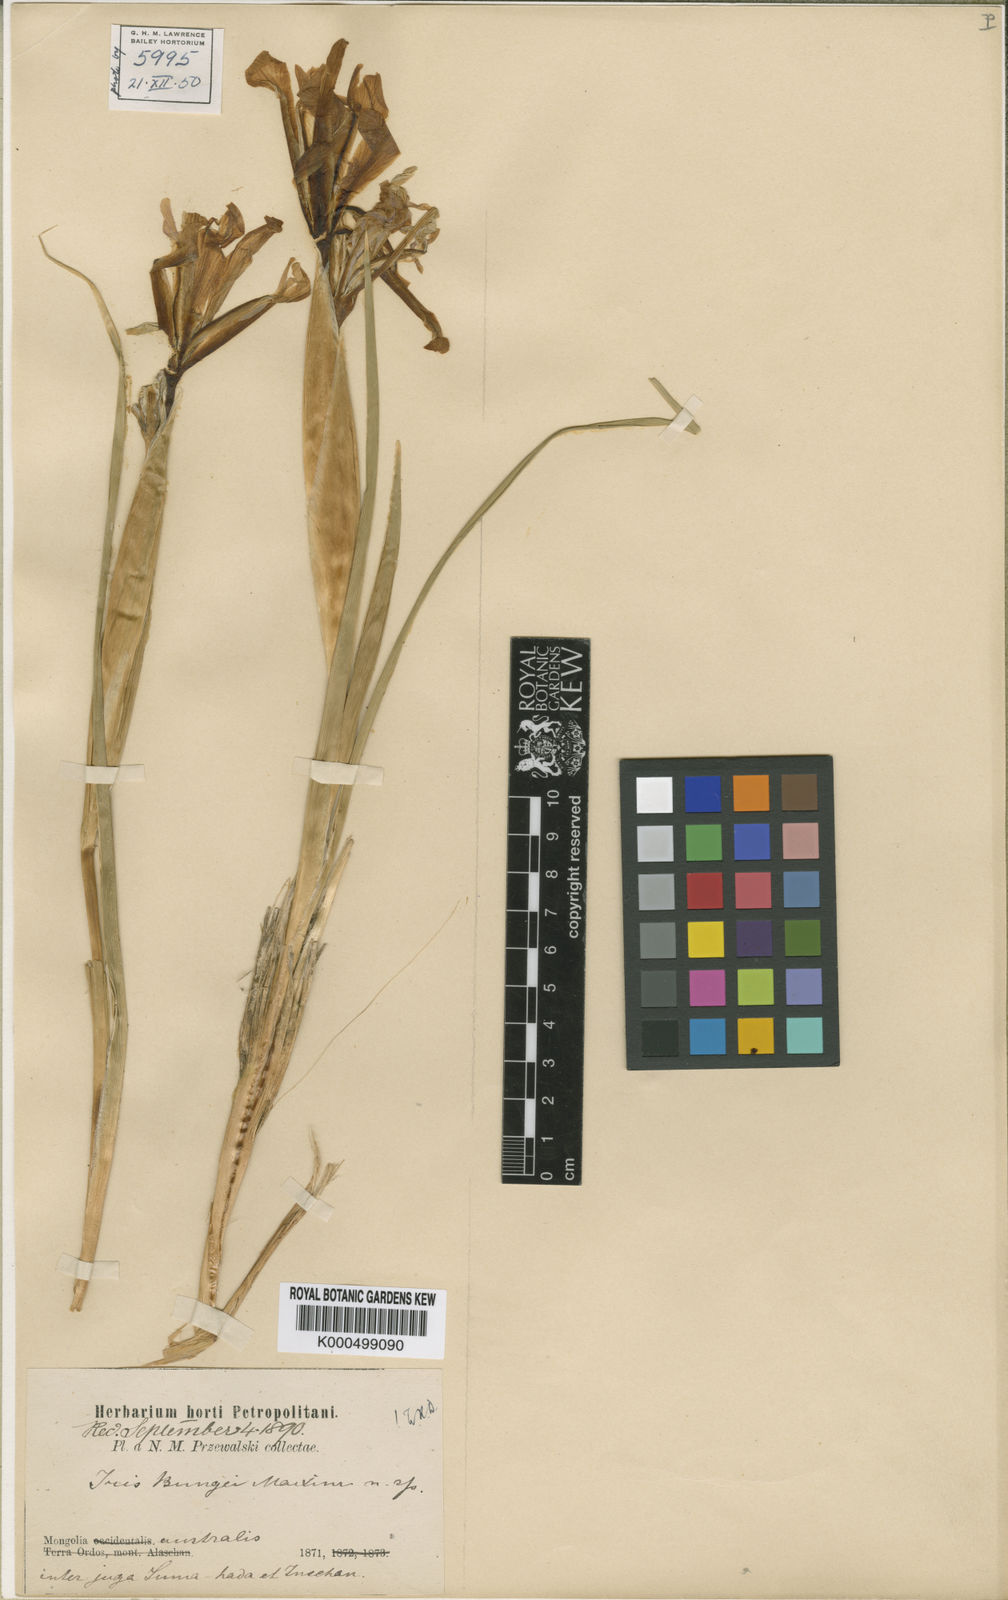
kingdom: Plantae
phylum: Tracheophyta
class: Liliopsida
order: Asparagales
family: Iridaceae
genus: Iris
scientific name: Iris bungei
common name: Large-bract iris
